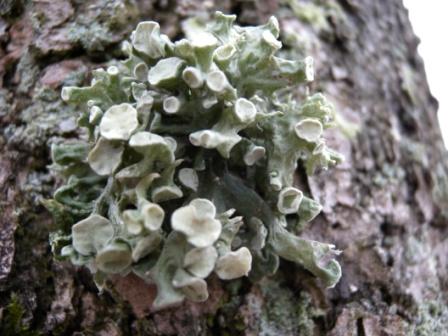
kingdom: Fungi
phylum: Ascomycota
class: Lecanoromycetes
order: Lecanorales
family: Ramalinaceae
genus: Ramalina
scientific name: Ramalina fastigiata
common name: tue-grenlav
